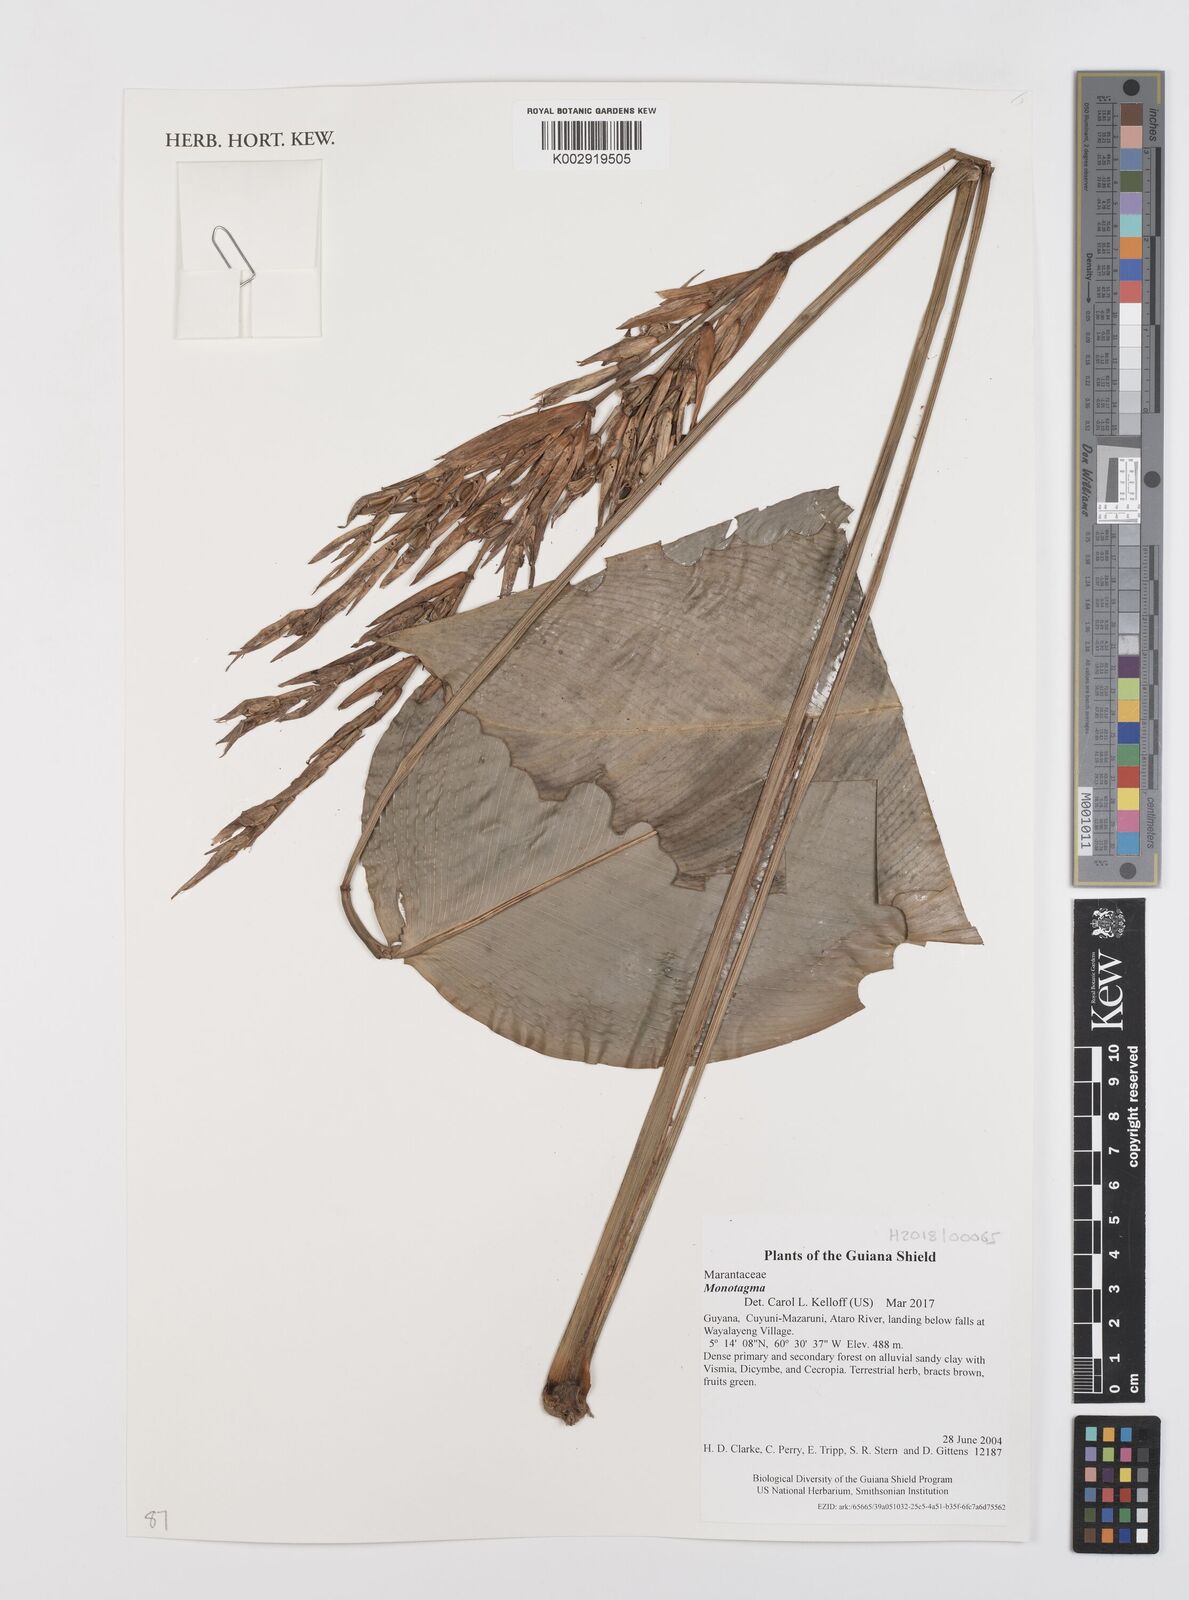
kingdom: Plantae
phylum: Tracheophyta
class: Liliopsida
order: Zingiberales
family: Marantaceae
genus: Monotagma
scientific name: Monotagma
